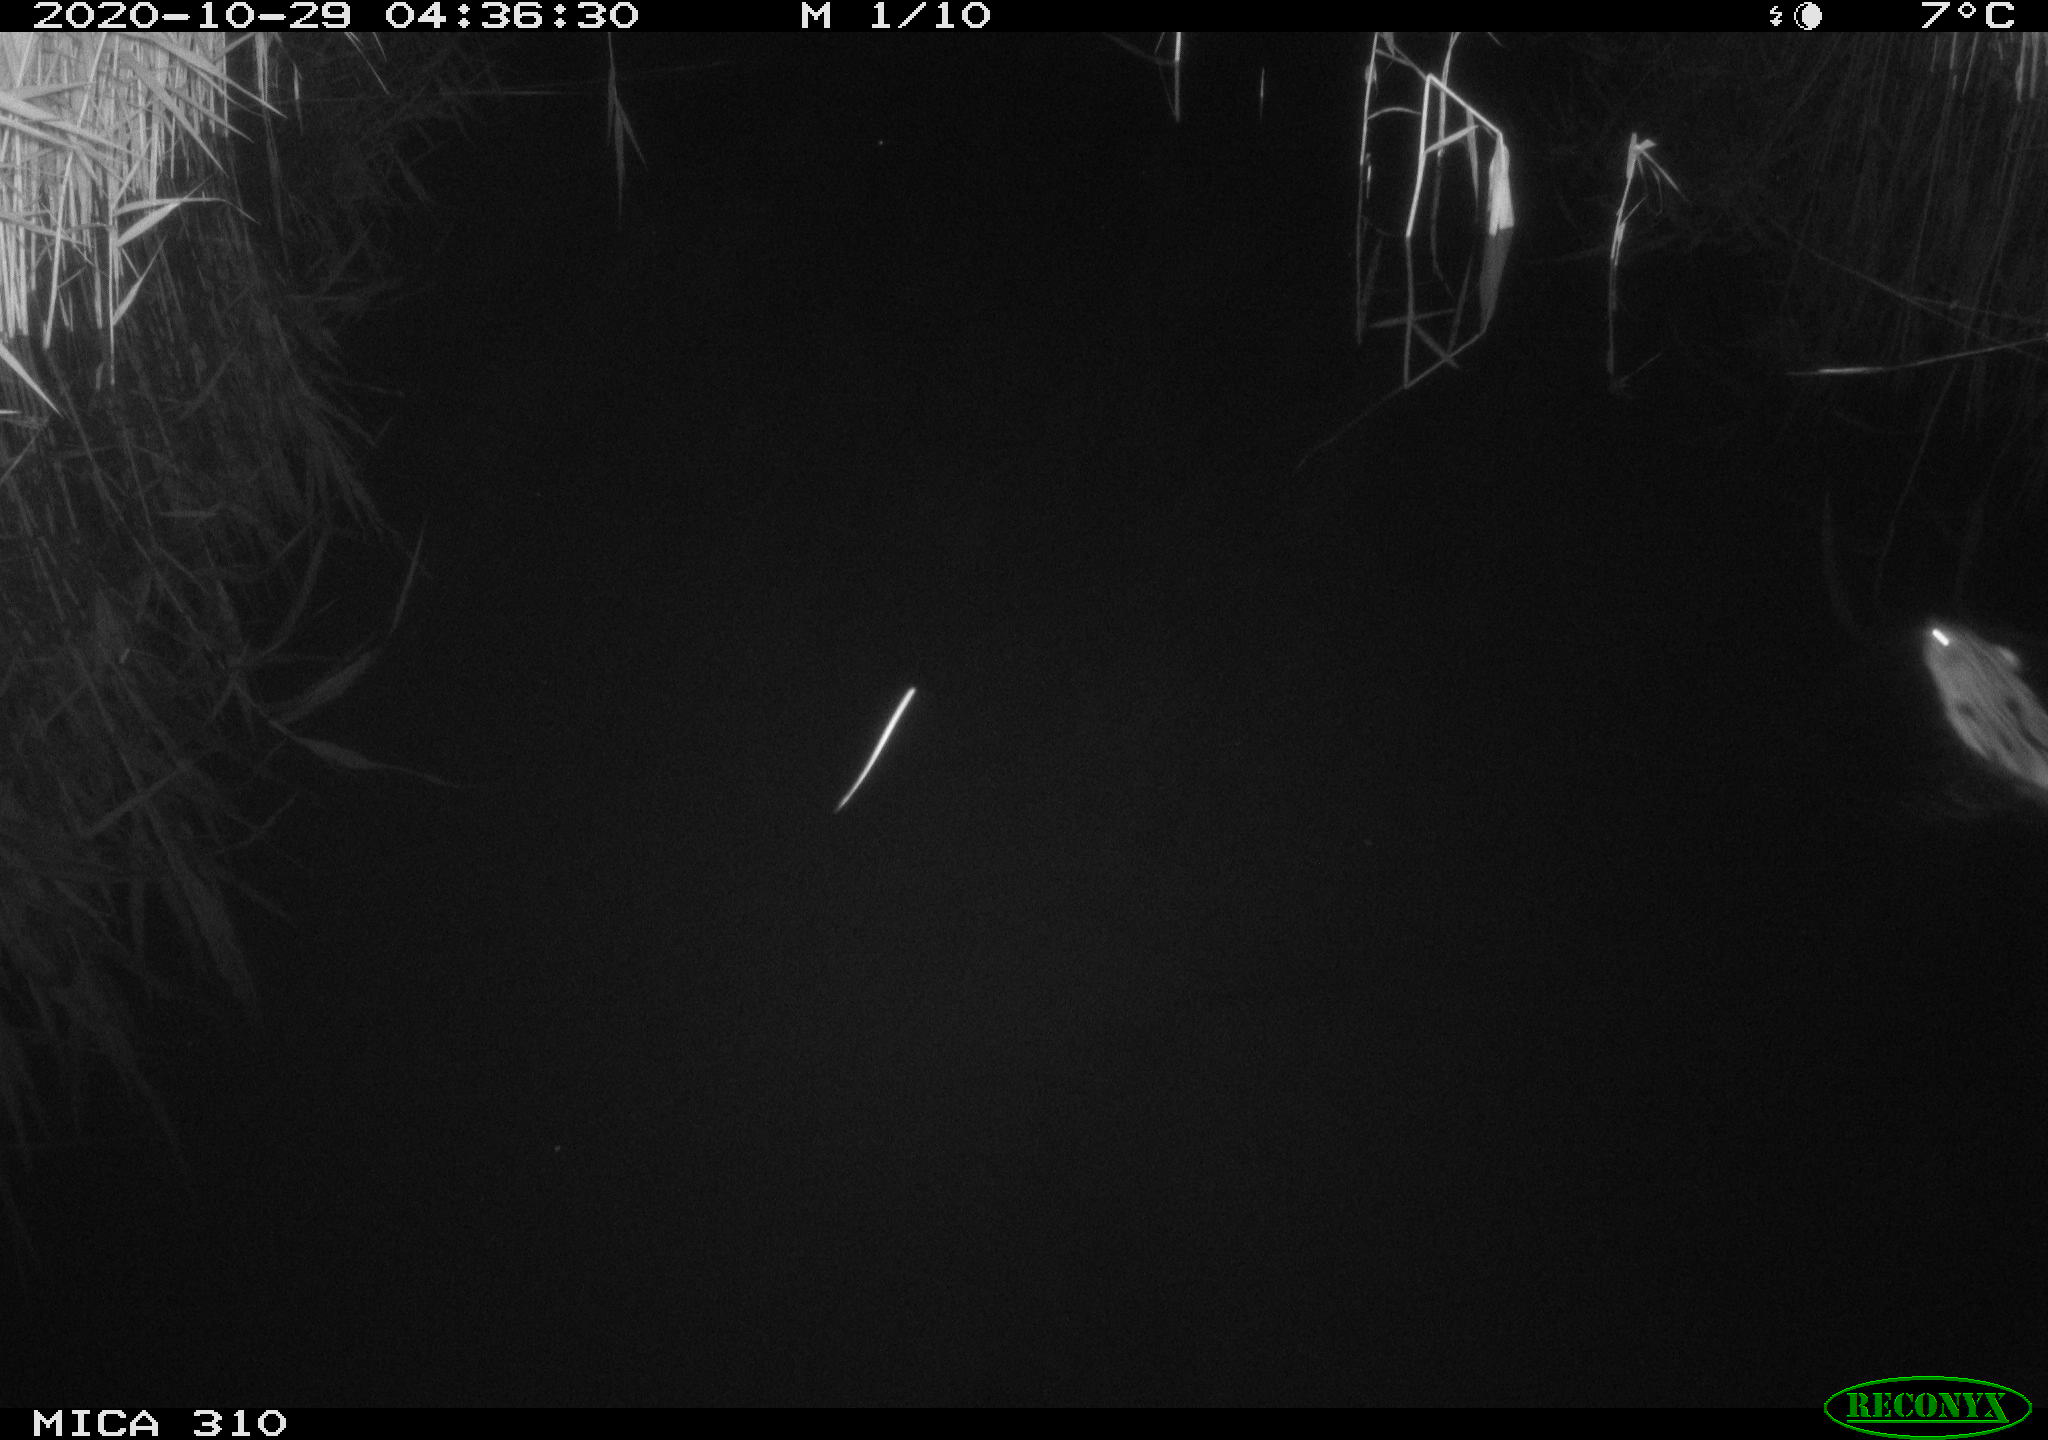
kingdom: Animalia
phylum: Chordata
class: Mammalia
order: Rodentia
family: Cricetidae
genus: Ondatra
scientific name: Ondatra zibethicus
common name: Muskrat
